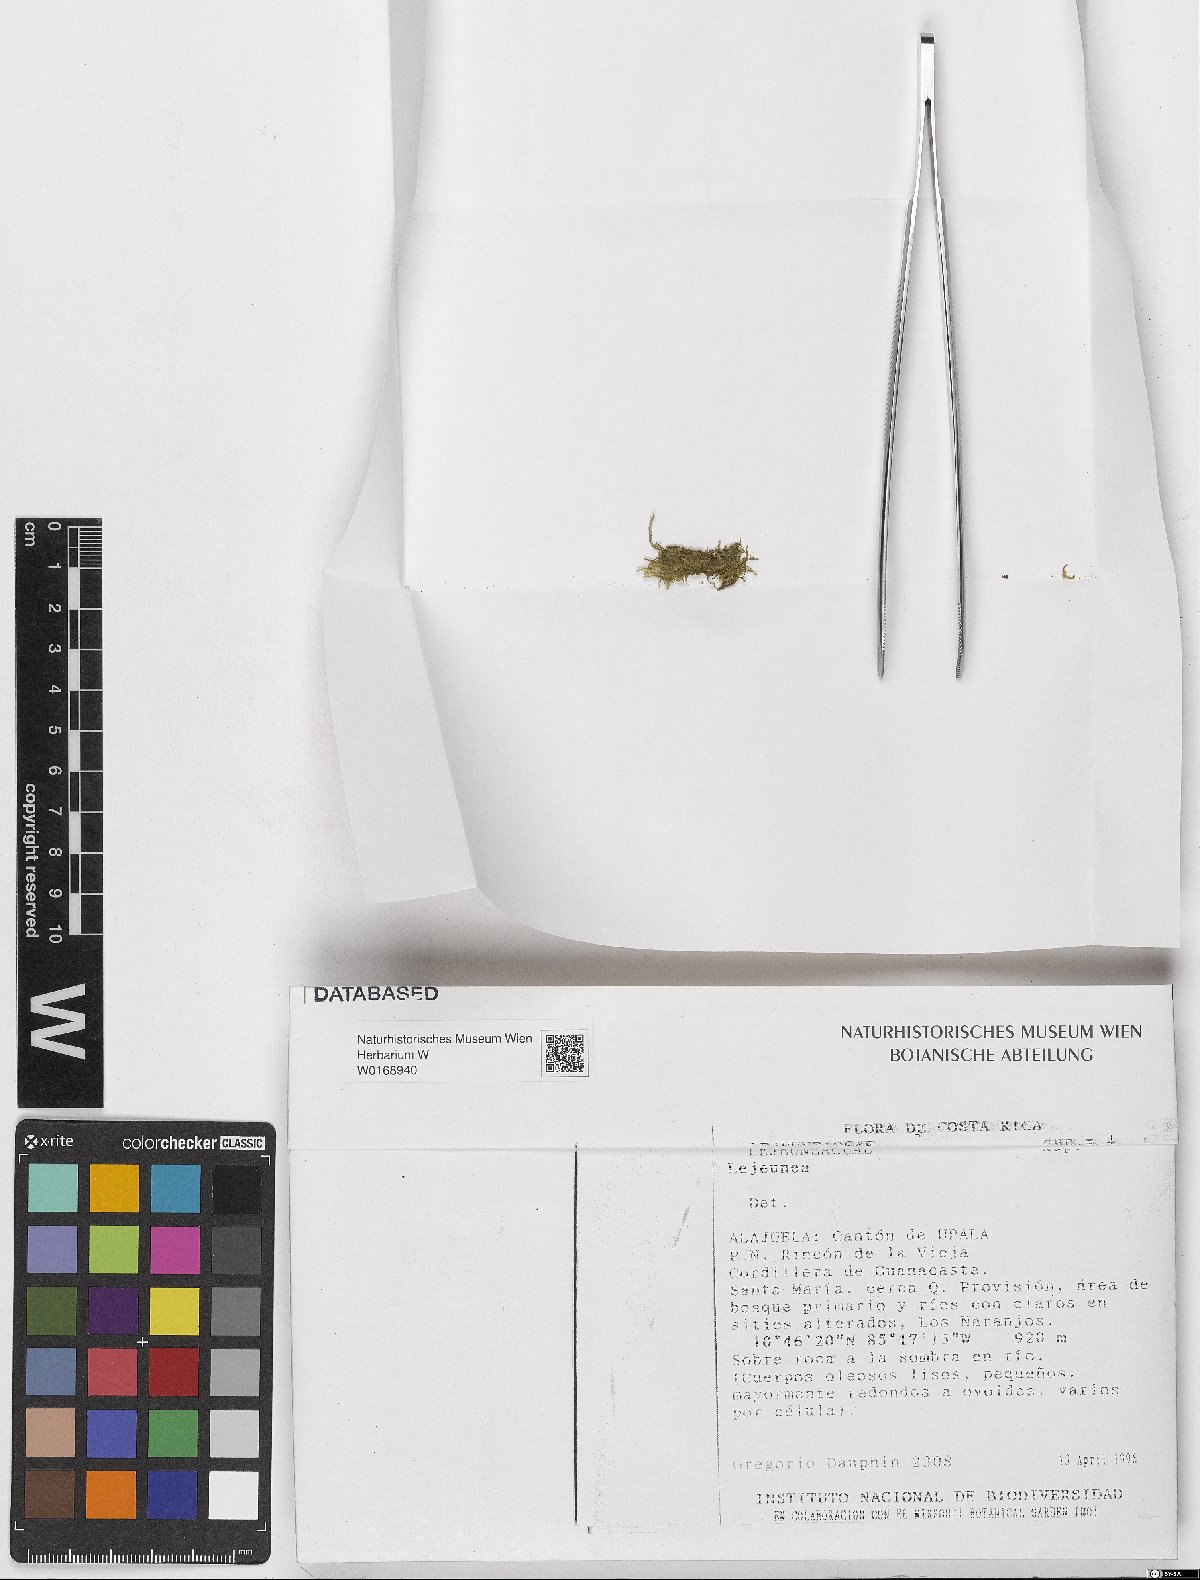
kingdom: Plantae
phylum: Marchantiophyta
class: Jungermanniopsida
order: Porellales
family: Lejeuneaceae
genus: Lejeunea
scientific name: Lejeunea
